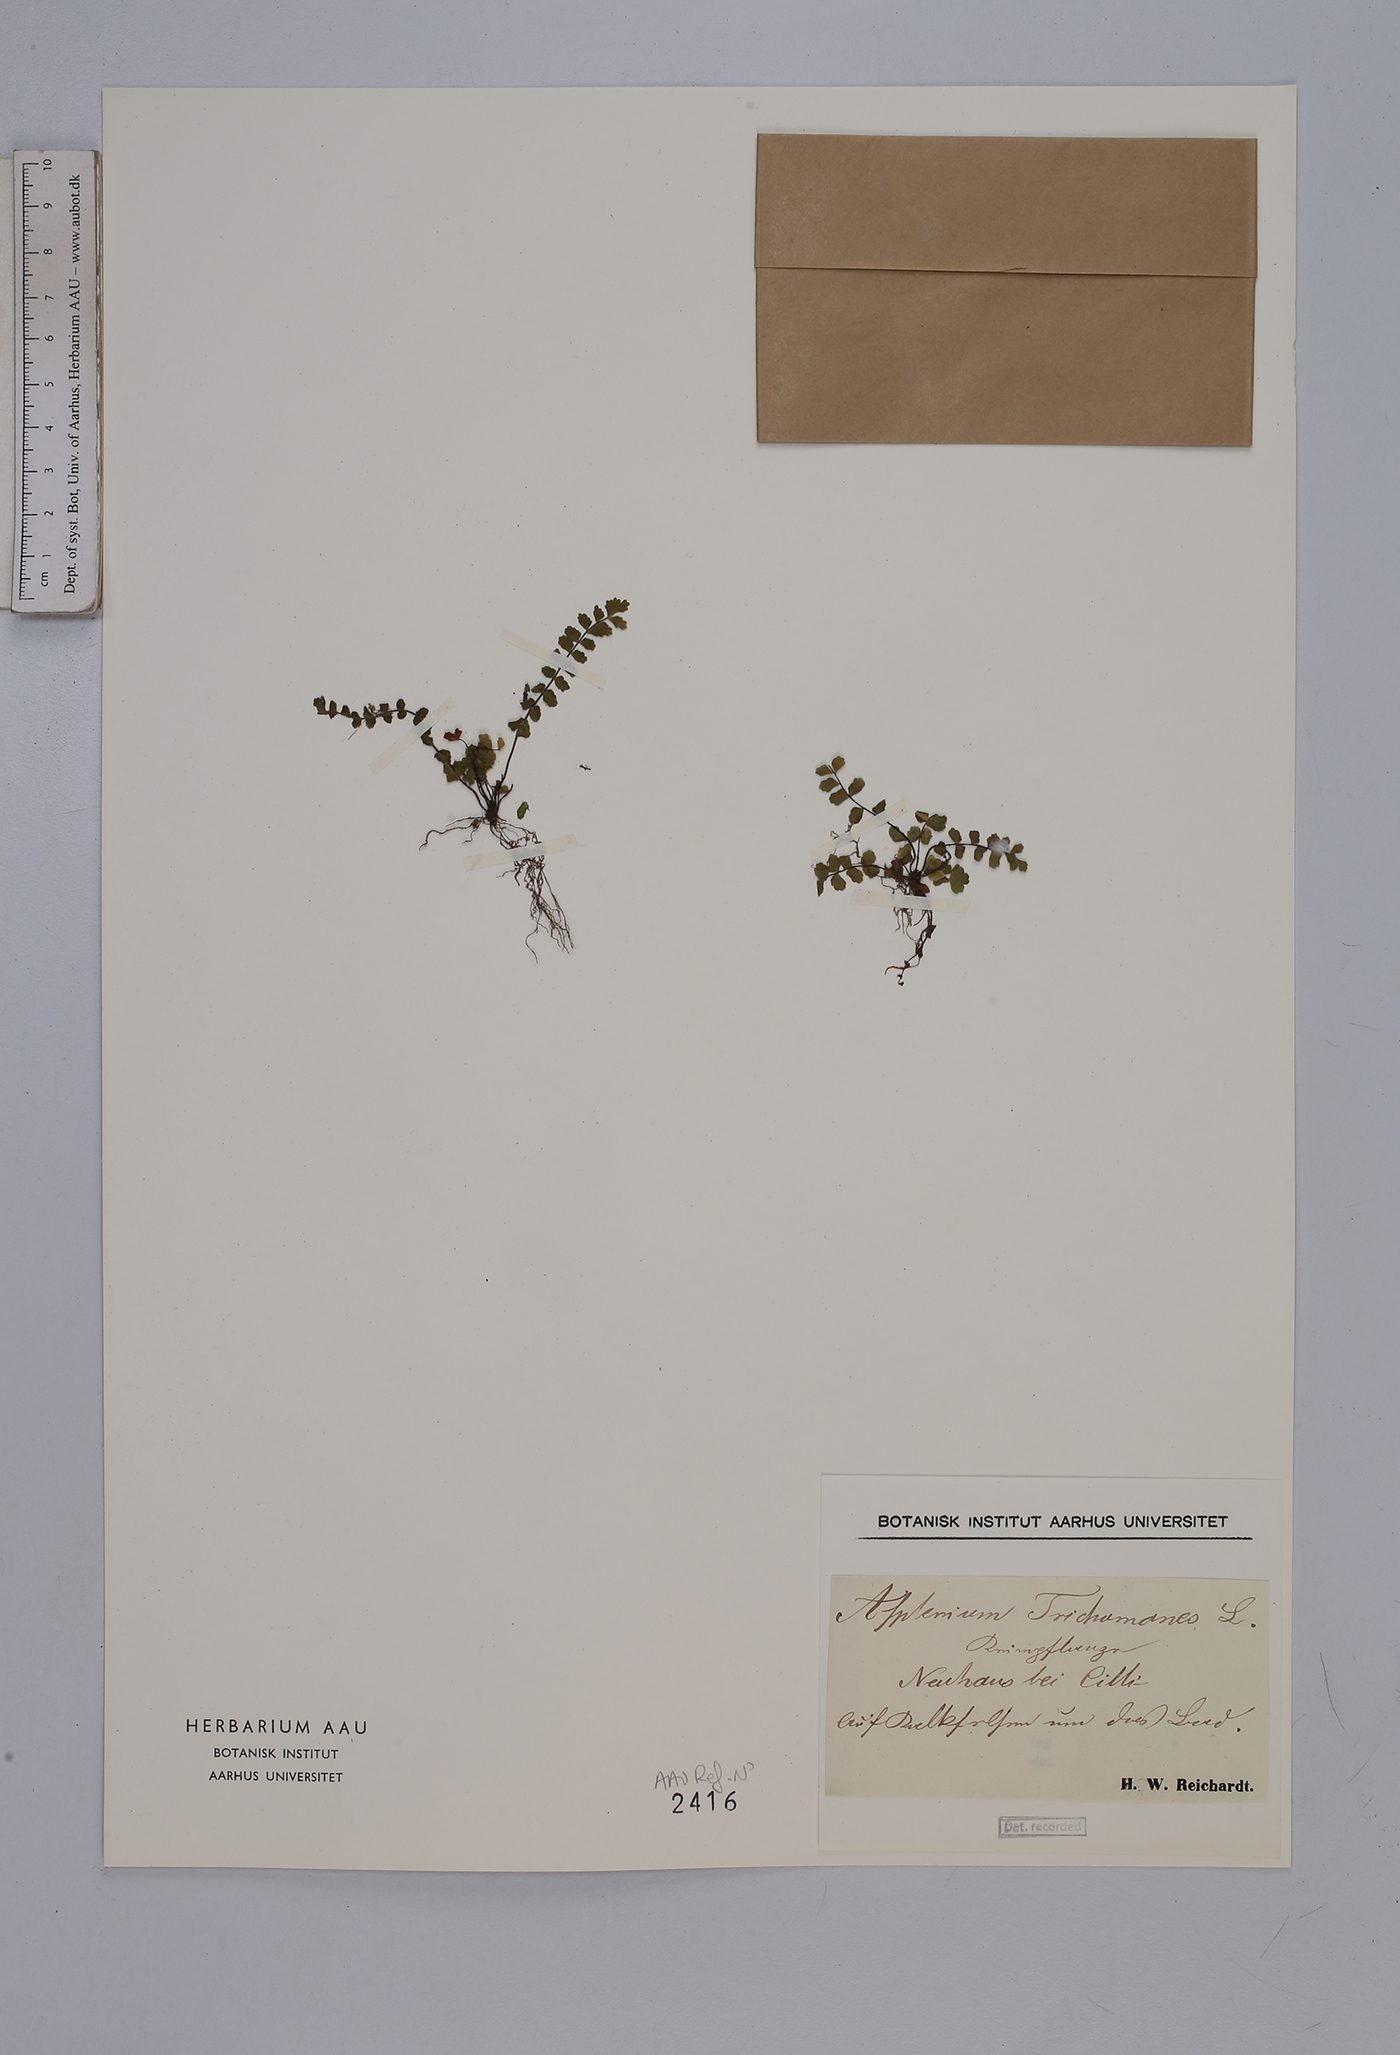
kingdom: Plantae
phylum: Tracheophyta
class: Polypodiopsida
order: Polypodiales
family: Aspleniaceae
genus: Asplenium
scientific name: Asplenium trichomanes
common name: Maidenhair spleenwort
